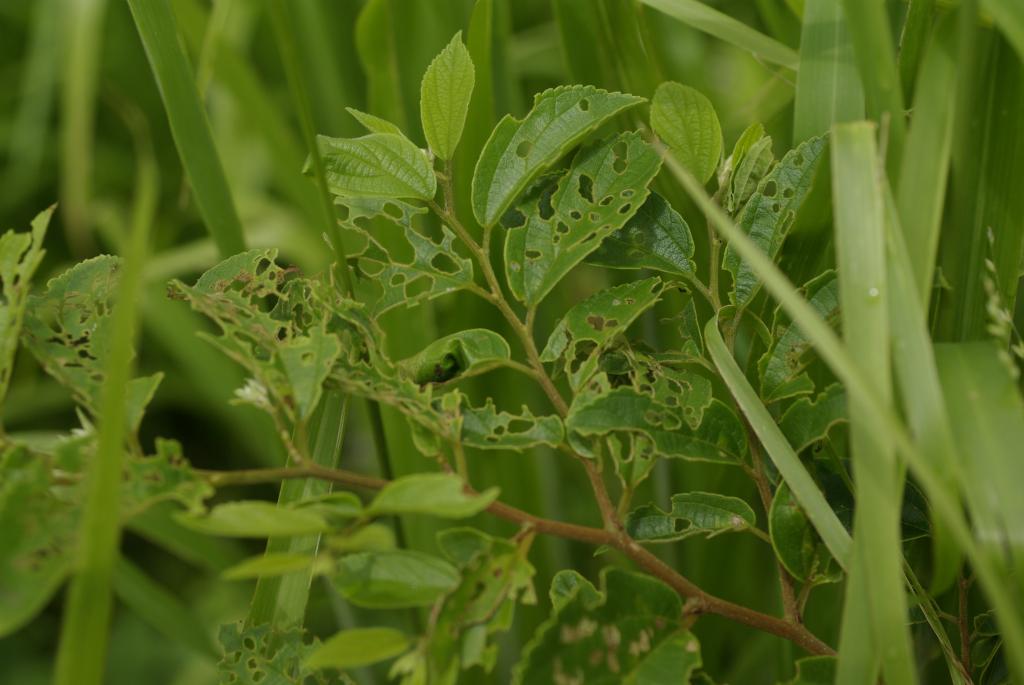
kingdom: Plantae
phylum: Tracheophyta
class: Magnoliopsida
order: Rosales
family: Cannabaceae
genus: Celtis
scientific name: Celtis sinensis
